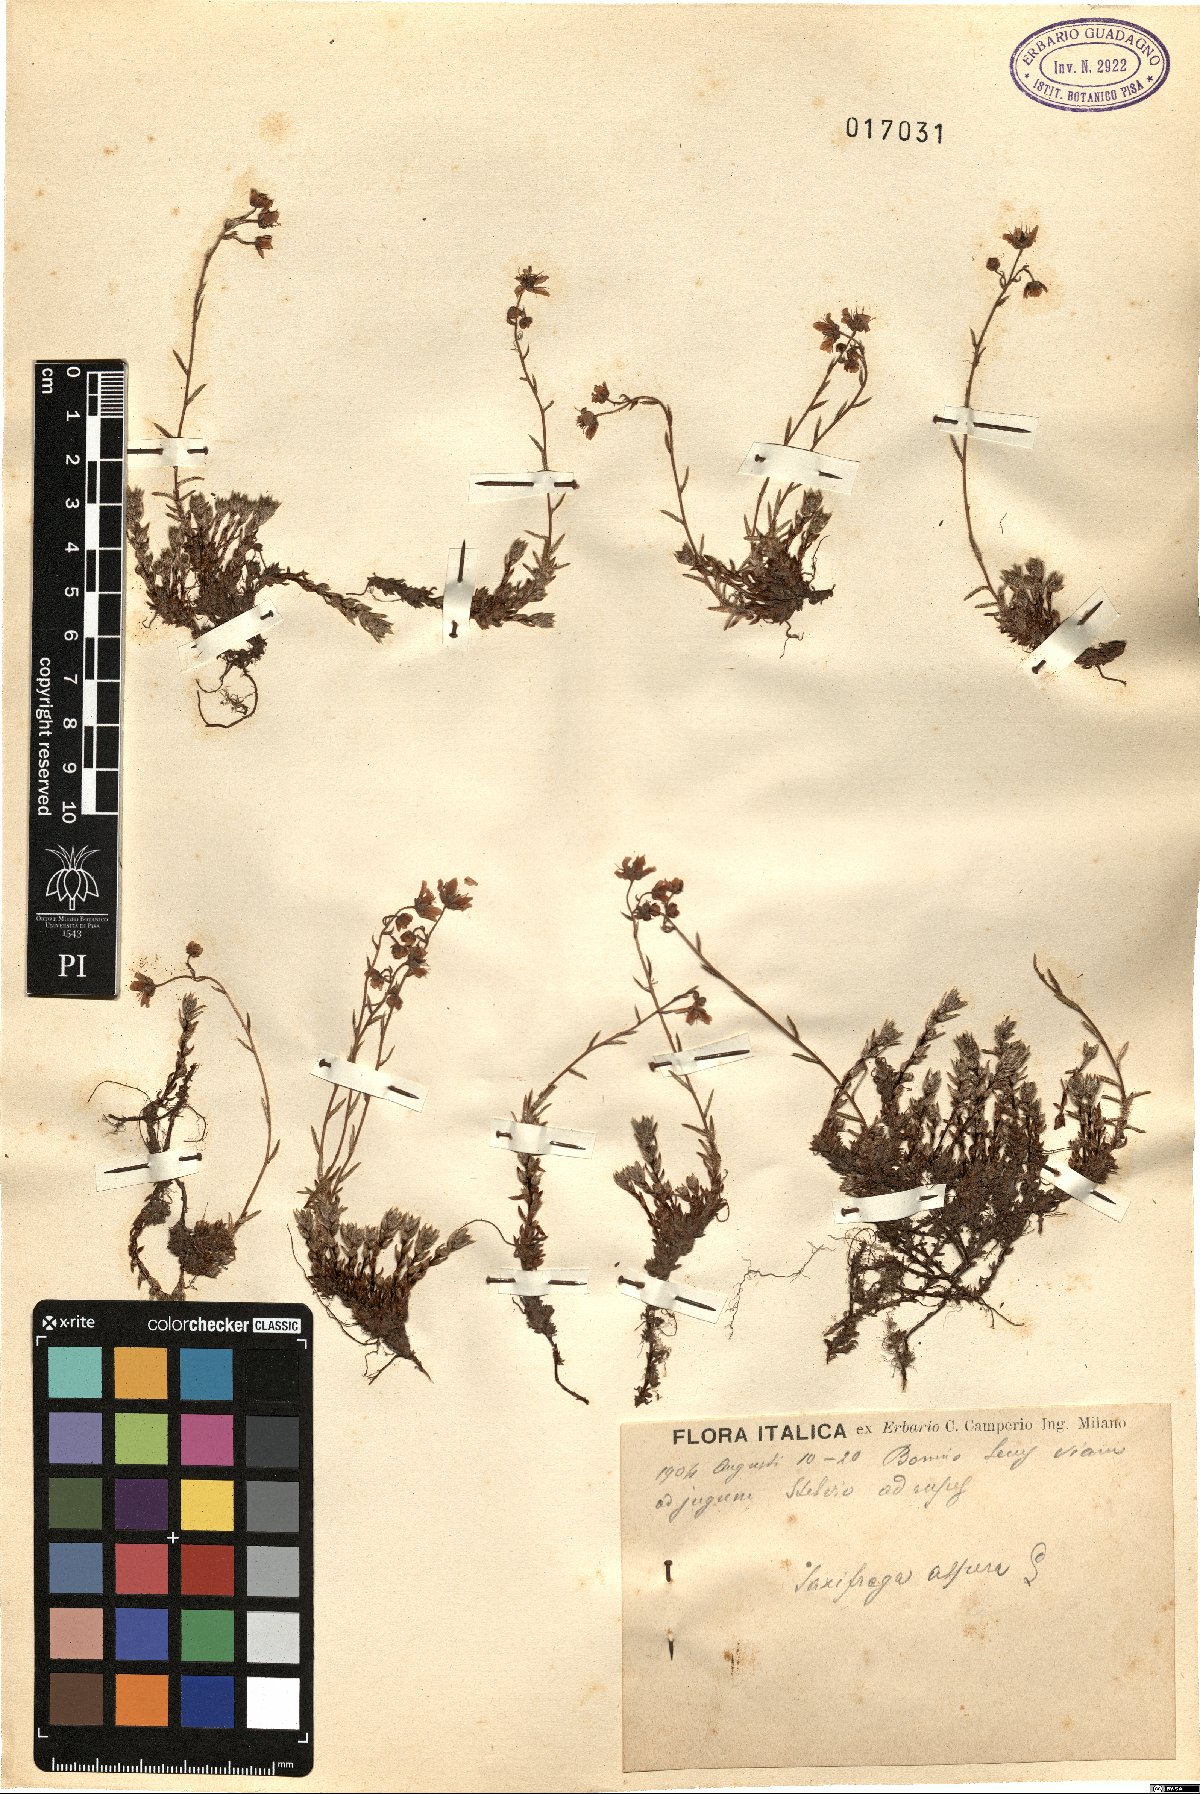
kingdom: Plantae
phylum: Tracheophyta
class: Magnoliopsida
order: Saxifragales
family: Saxifragaceae
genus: Saxifraga
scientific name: Saxifraga aspera
